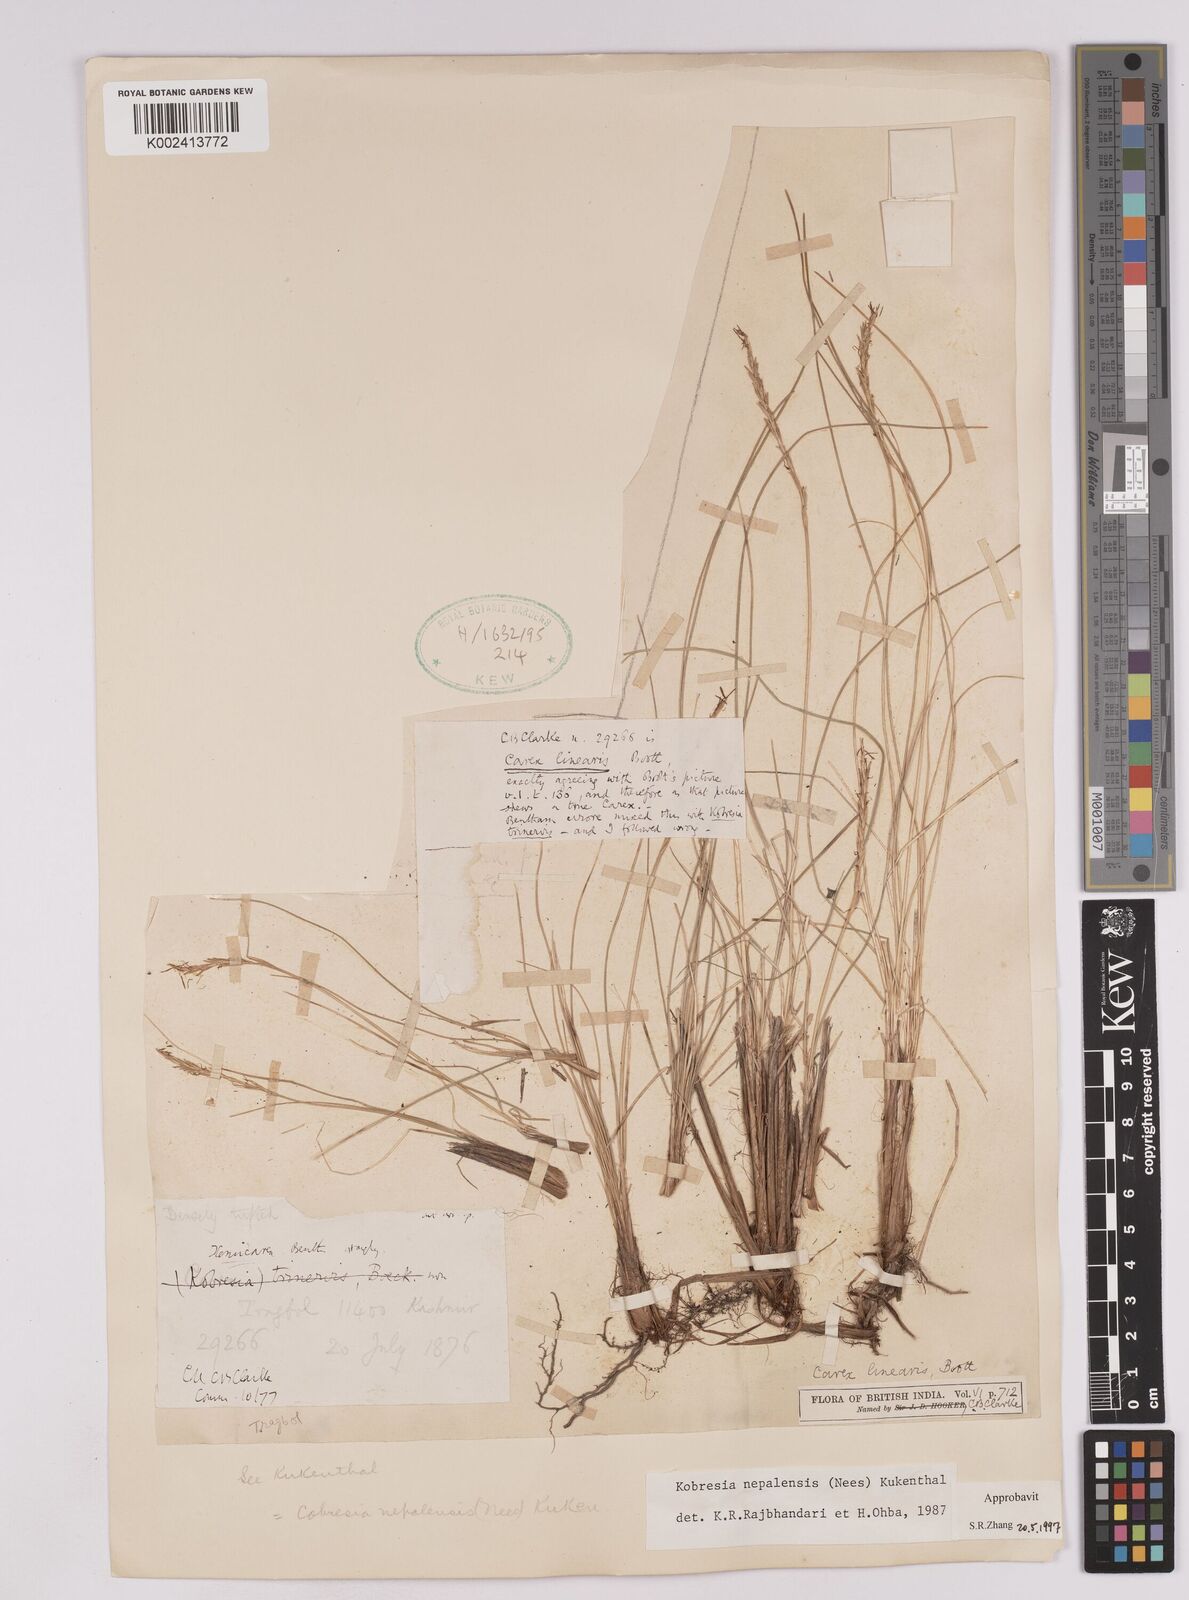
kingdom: Plantae
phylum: Tracheophyta
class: Liliopsida
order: Poales
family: Cyperaceae
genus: Carex
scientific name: Carex unciniiformis
